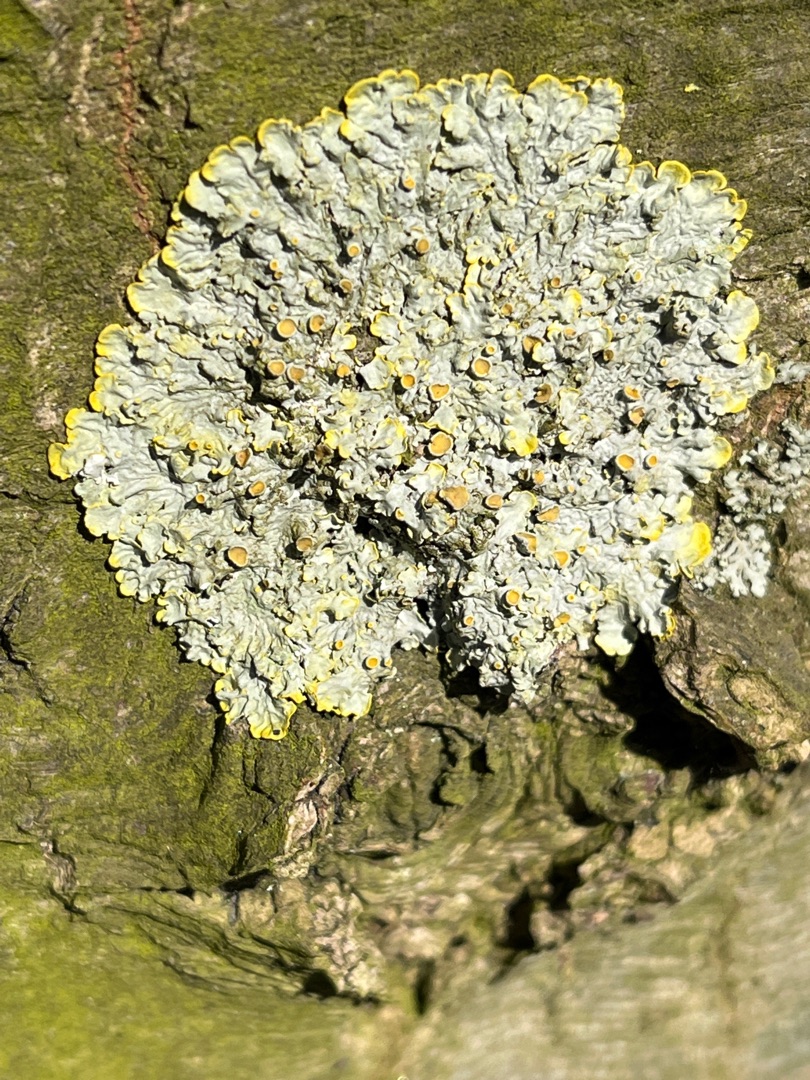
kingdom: Fungi
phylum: Ascomycota
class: Lecanoromycetes
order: Teloschistales
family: Teloschistaceae
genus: Xanthoria
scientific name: Xanthoria parietina
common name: Almindelig væggelav
